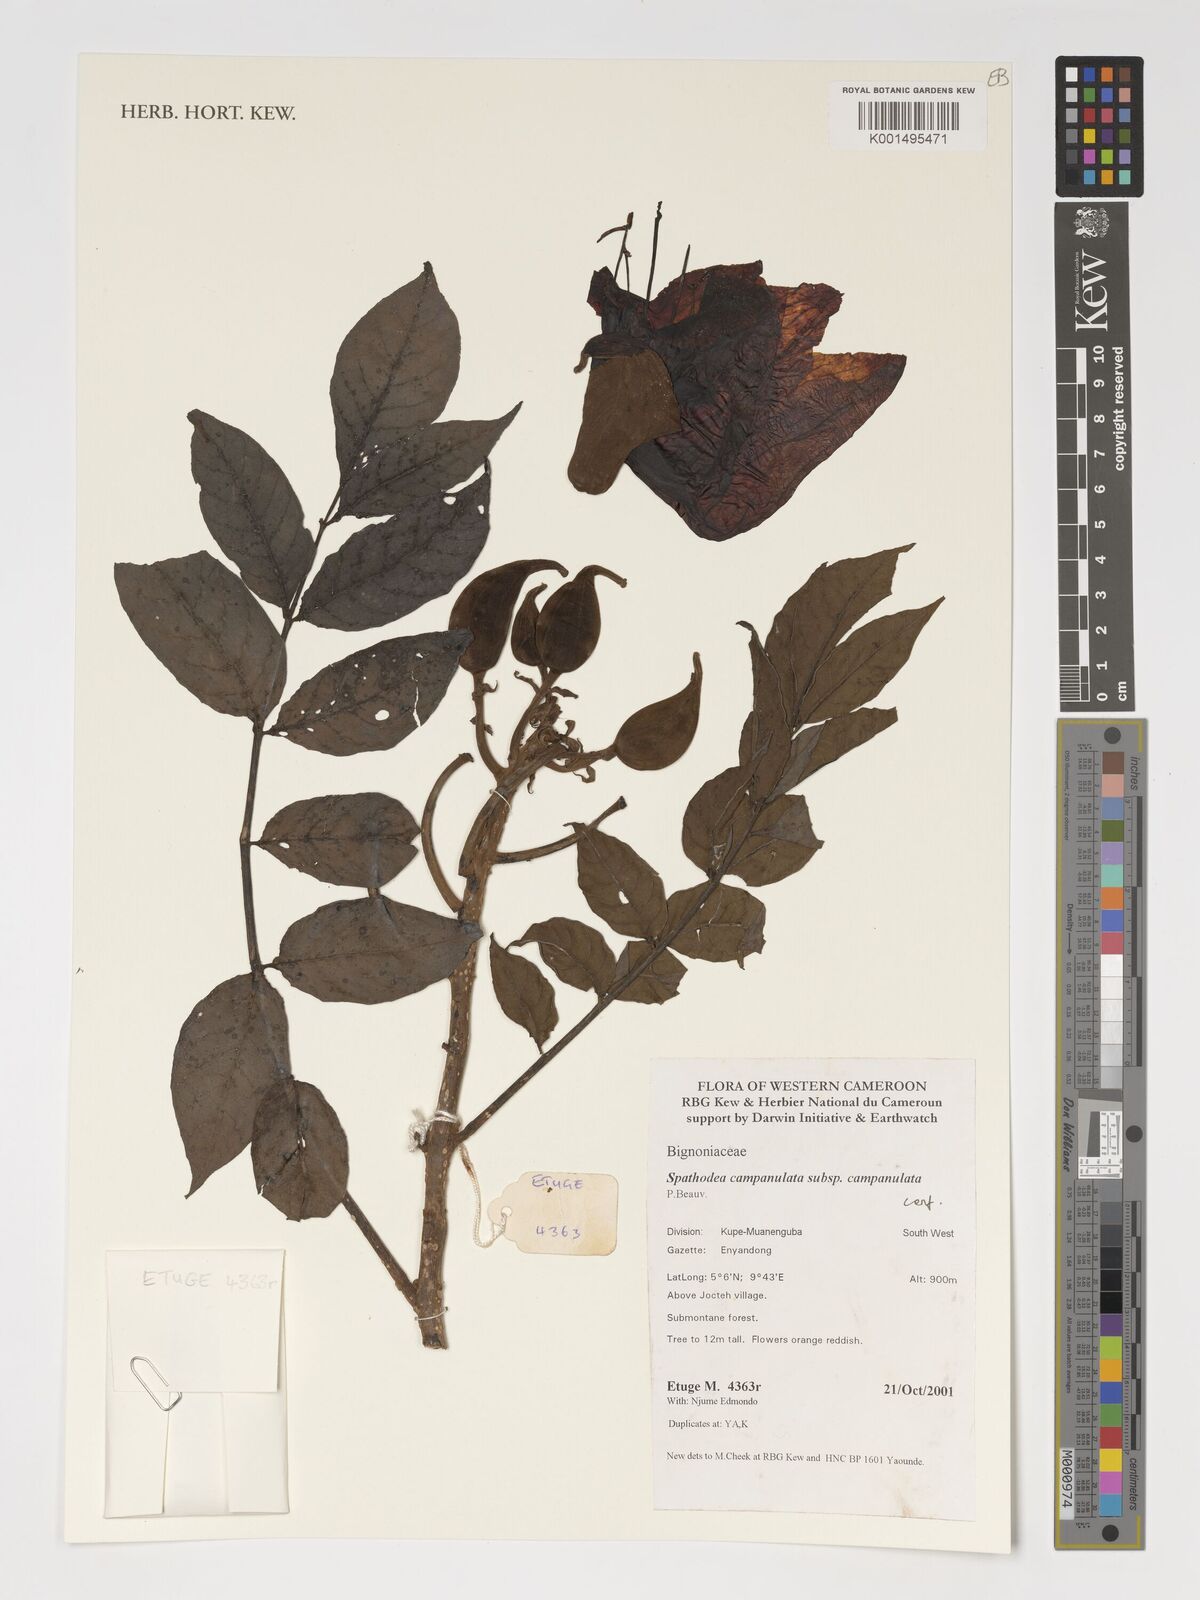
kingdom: Plantae
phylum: Tracheophyta
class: Magnoliopsida
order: Lamiales
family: Bignoniaceae
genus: Spathodea
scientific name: Spathodea campanulata
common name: African tuliptree
